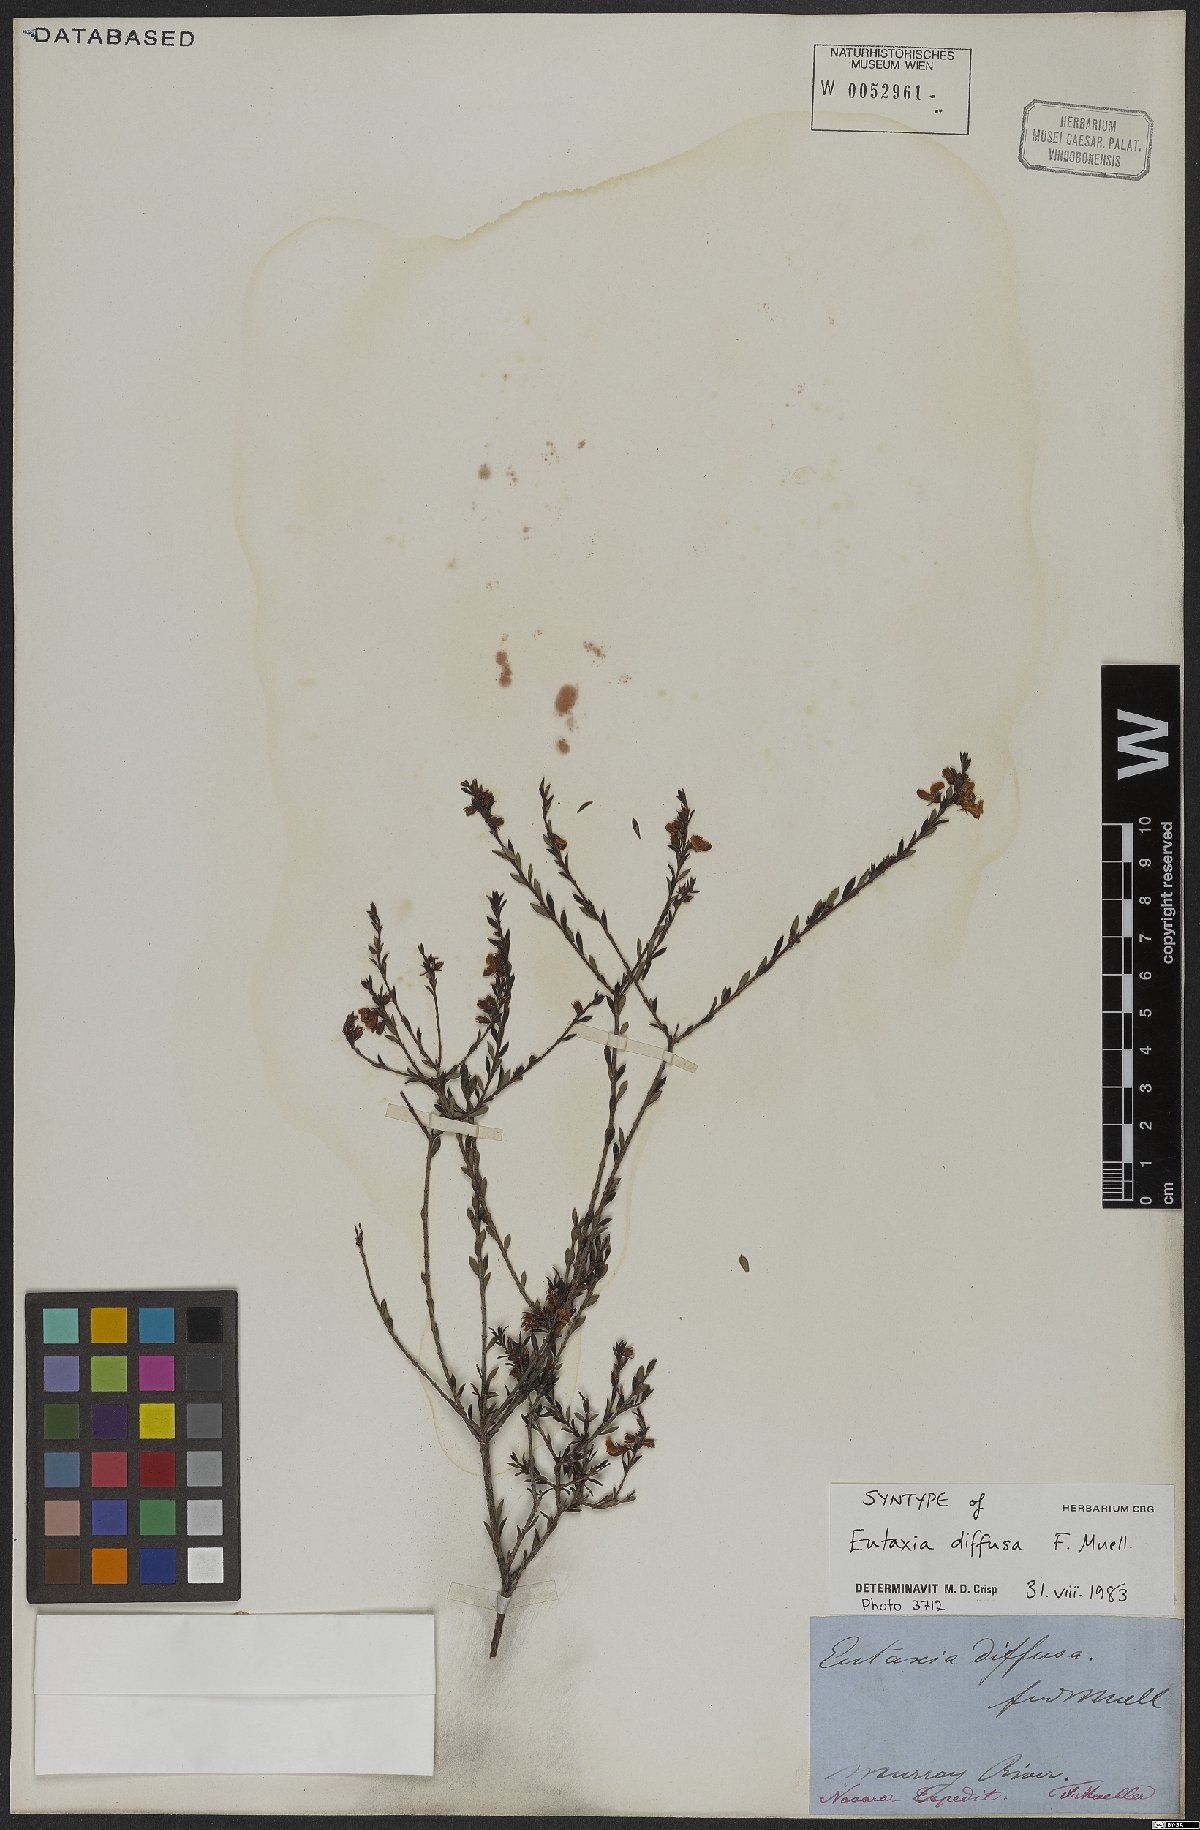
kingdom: Plantae
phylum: Tracheophyta
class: Magnoliopsida
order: Fabales
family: Fabaceae
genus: Eutaxia
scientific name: Eutaxia diffusa
